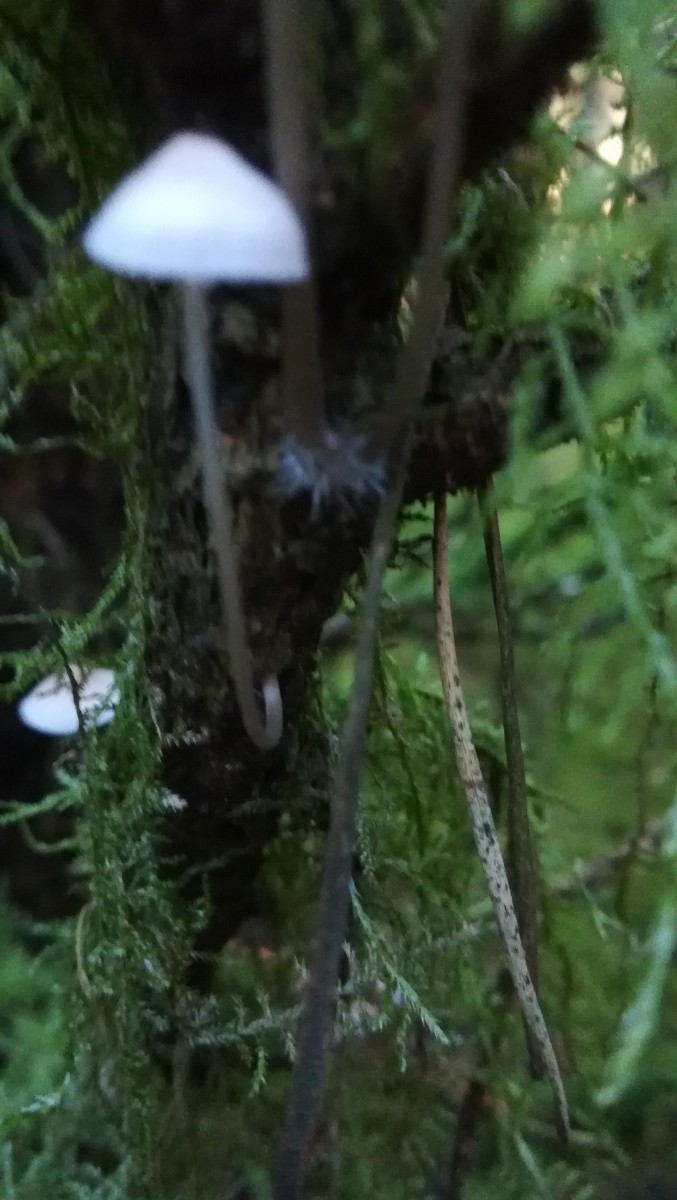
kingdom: Fungi
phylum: Basidiomycota
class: Agaricomycetes
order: Agaricales
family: Mycenaceae
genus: Mycena
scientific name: Mycena
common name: huesvamp
